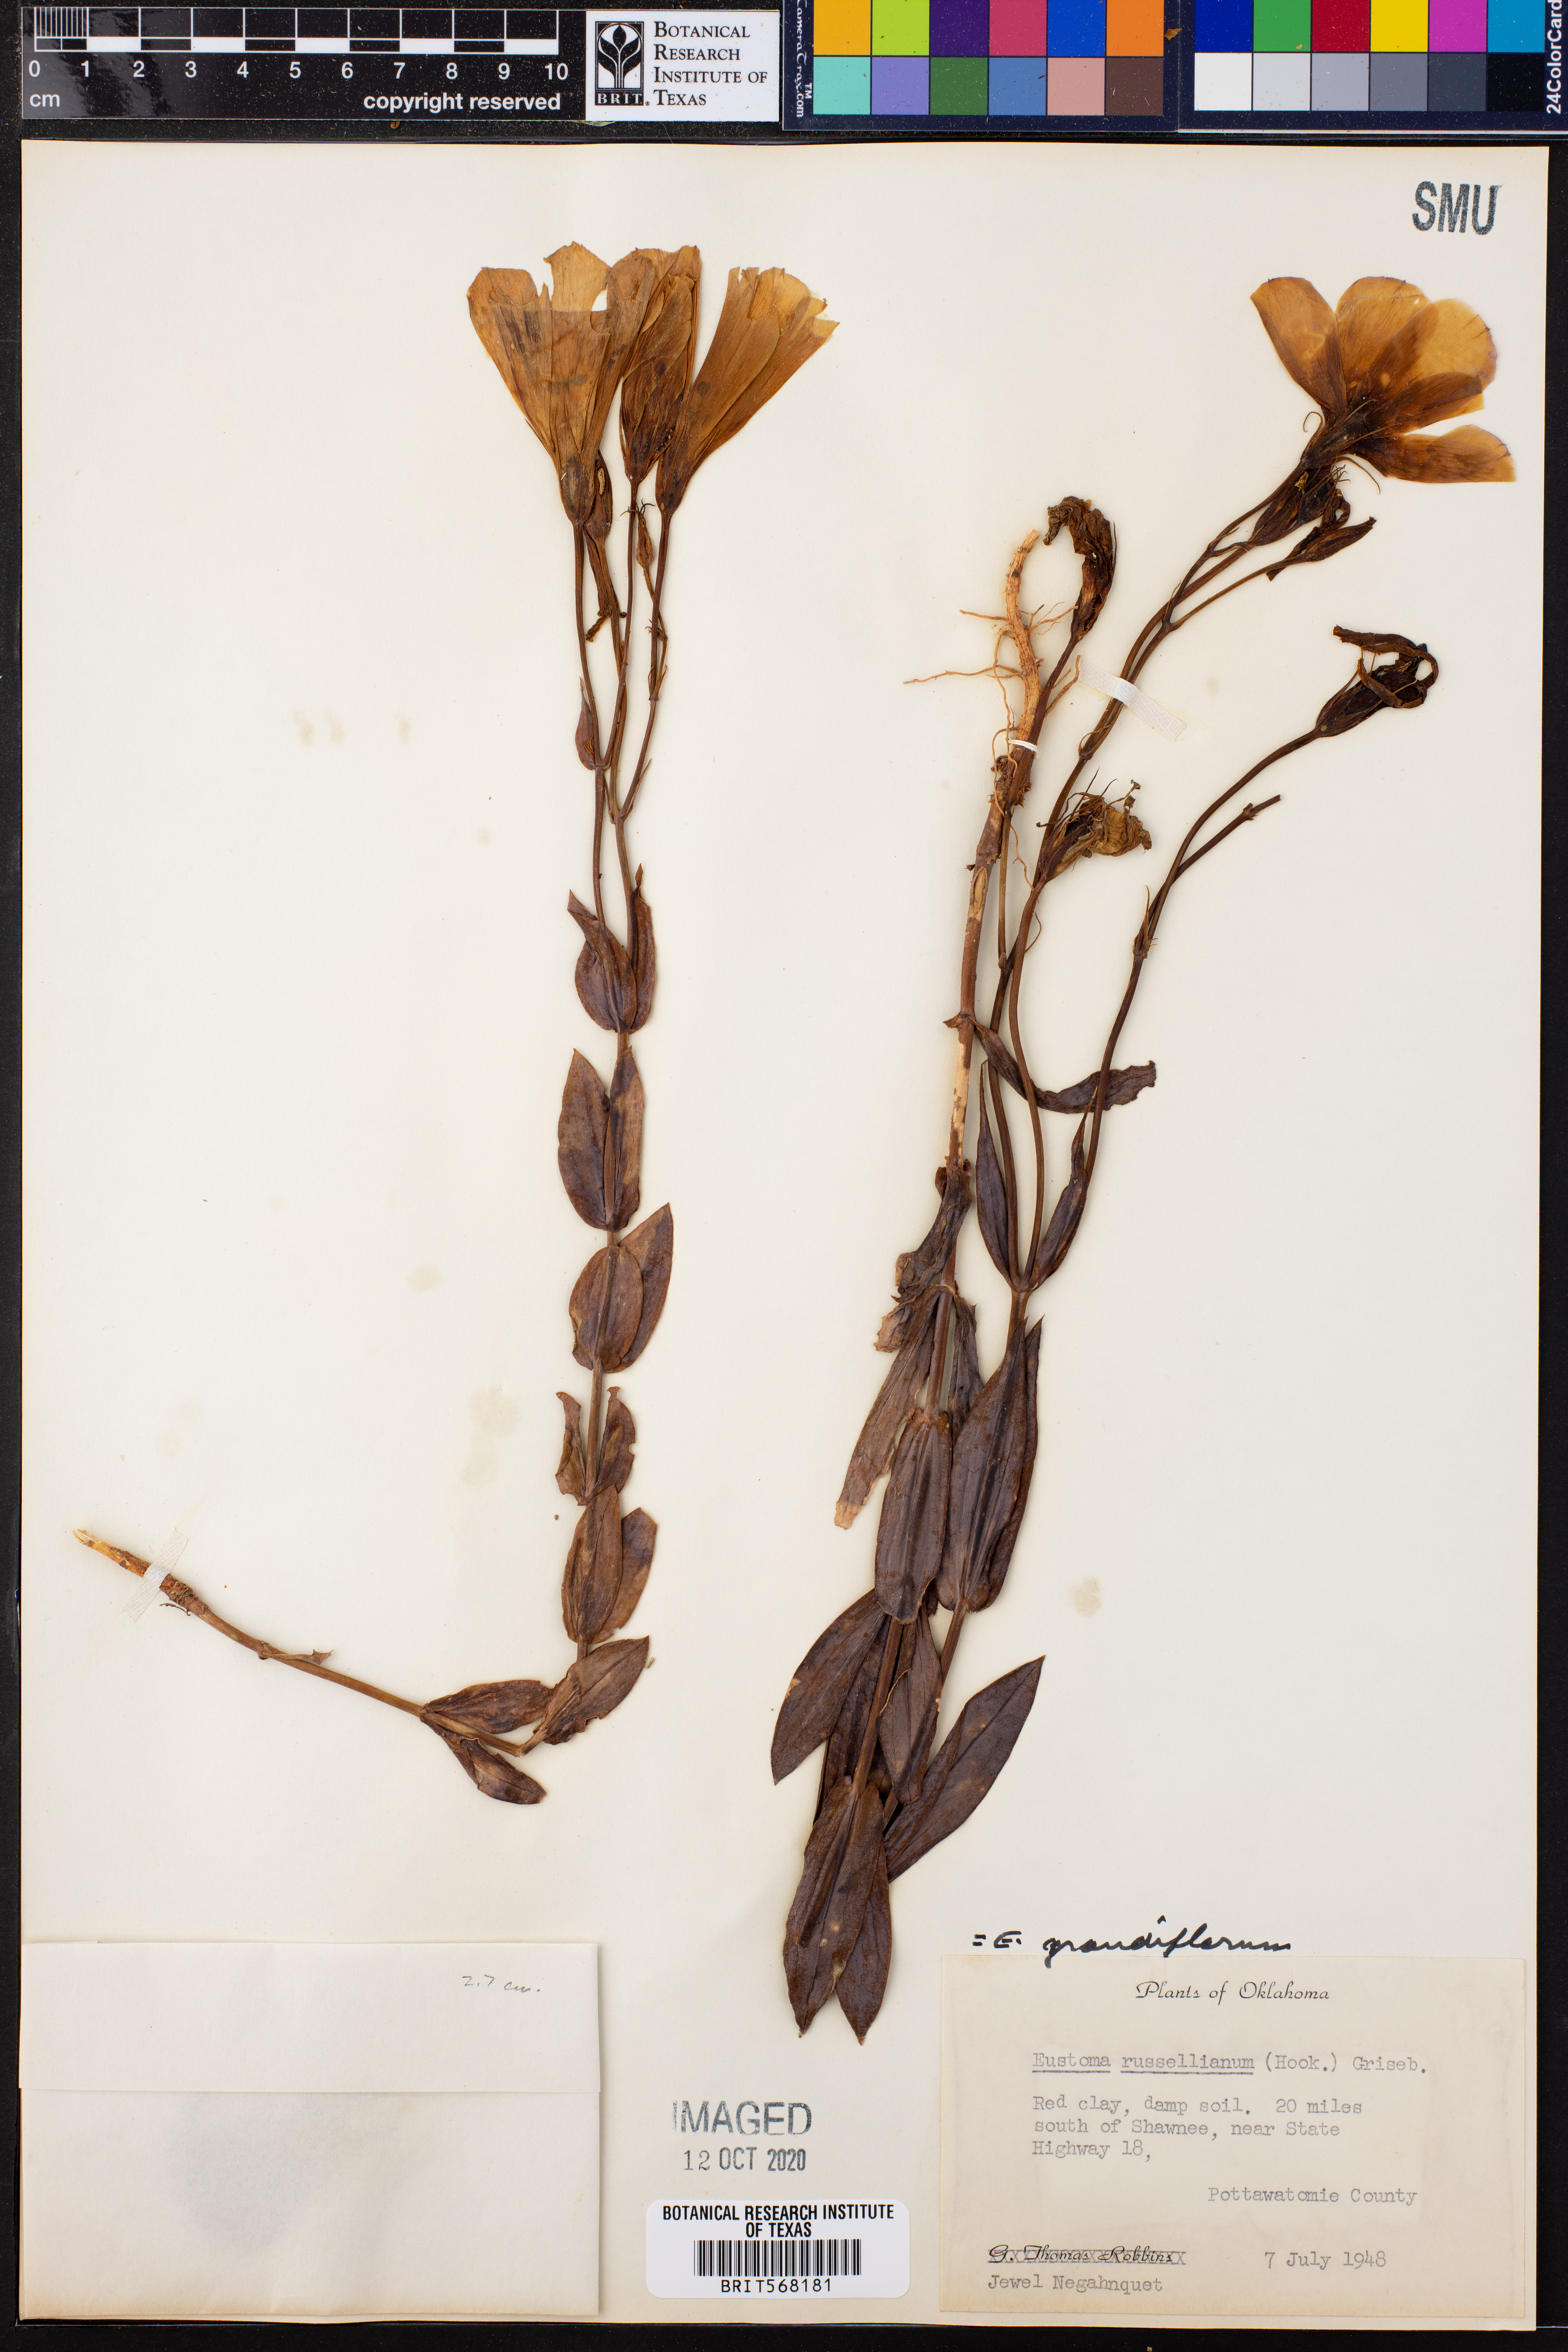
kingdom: Plantae
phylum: Tracheophyta
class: Magnoliopsida
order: Gentianales
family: Gentianaceae
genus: Eustoma
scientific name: Eustoma russellianum
